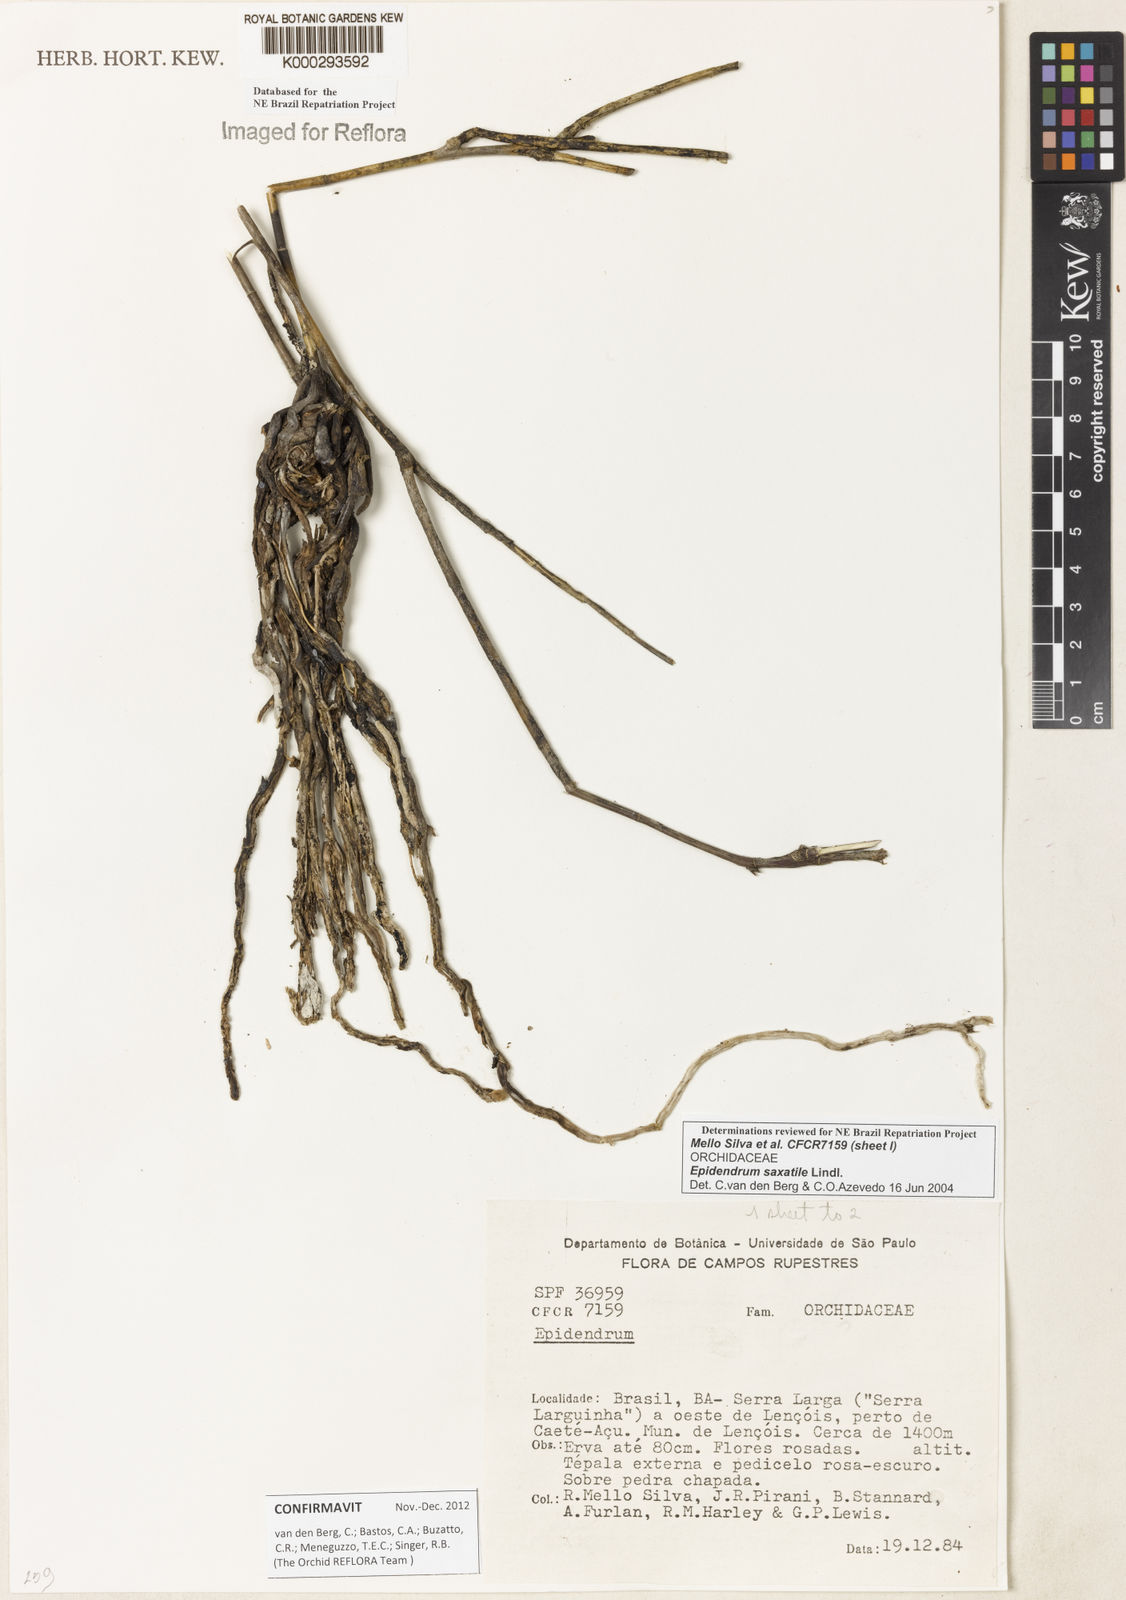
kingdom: Plantae
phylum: Tracheophyta
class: Liliopsida
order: Asparagales
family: Orchidaceae
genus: Epidendrum
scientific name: Epidendrum saxatile
